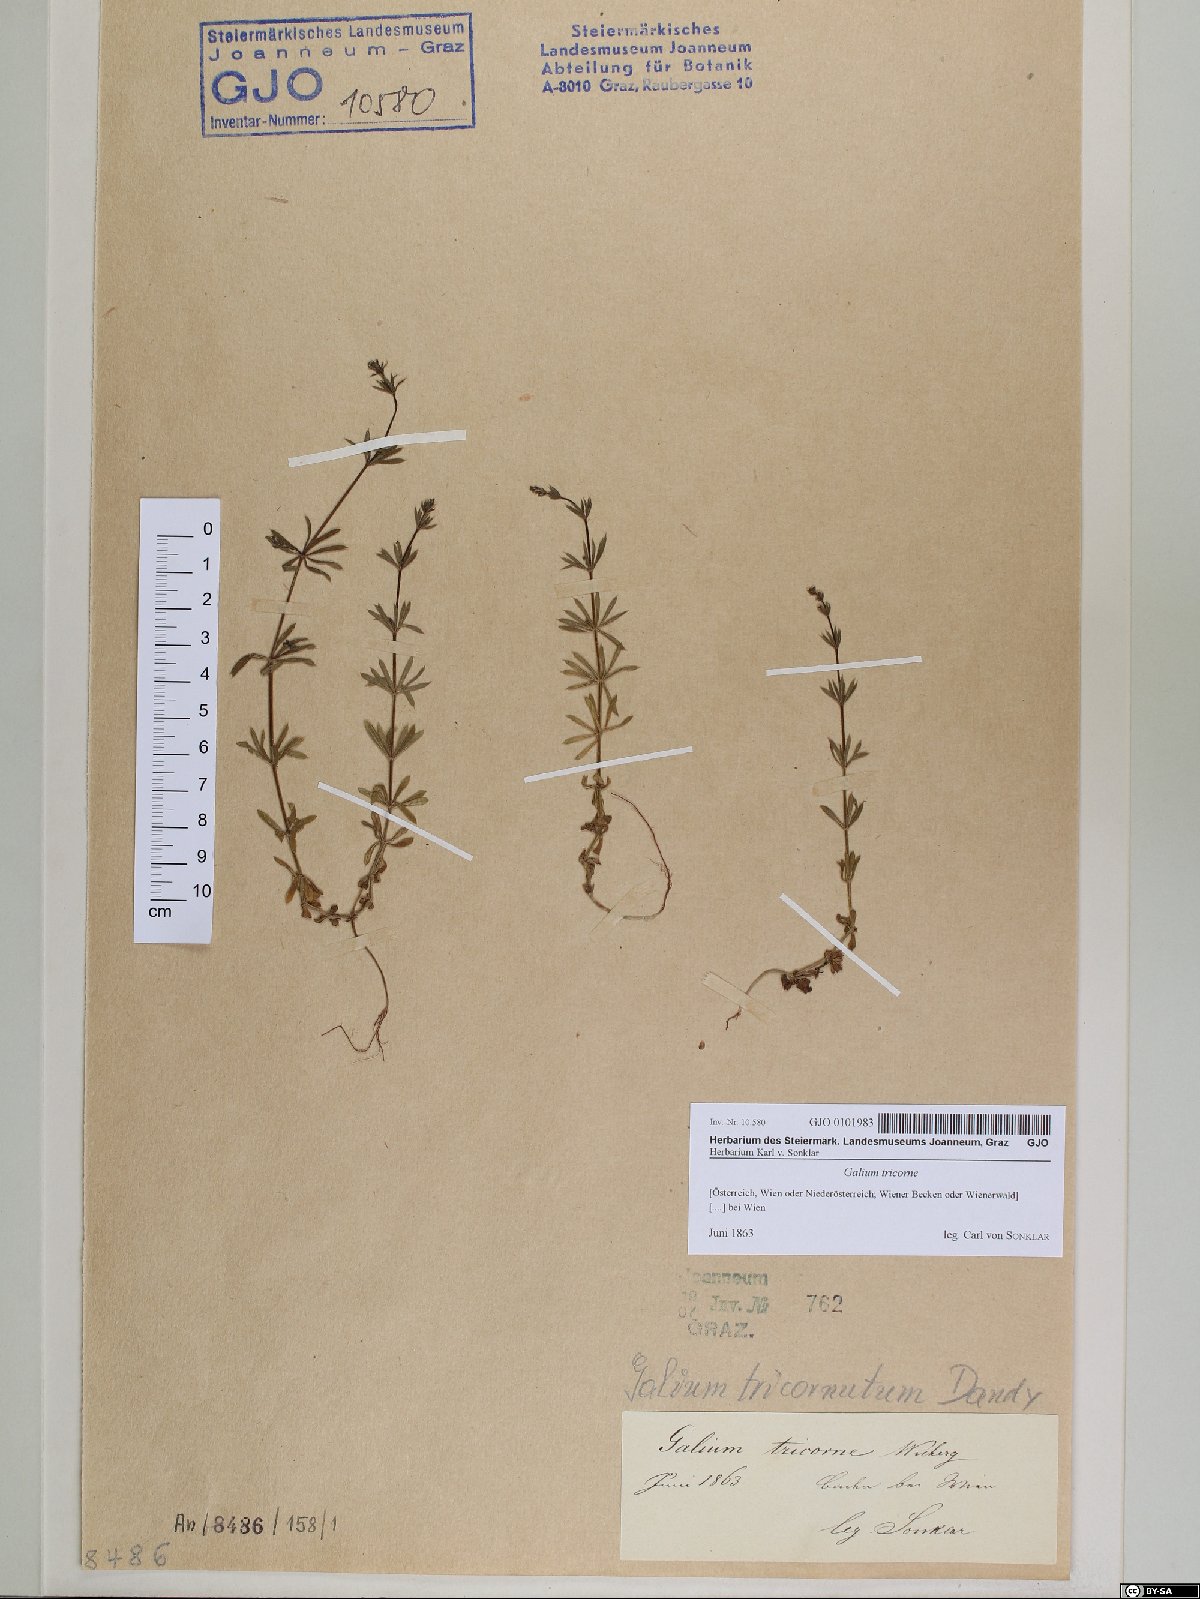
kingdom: Plantae
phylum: Tracheophyta
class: Magnoliopsida
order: Gentianales
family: Rubiaceae
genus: Galium
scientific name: Galium verrucosum
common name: Warty bedstraw
